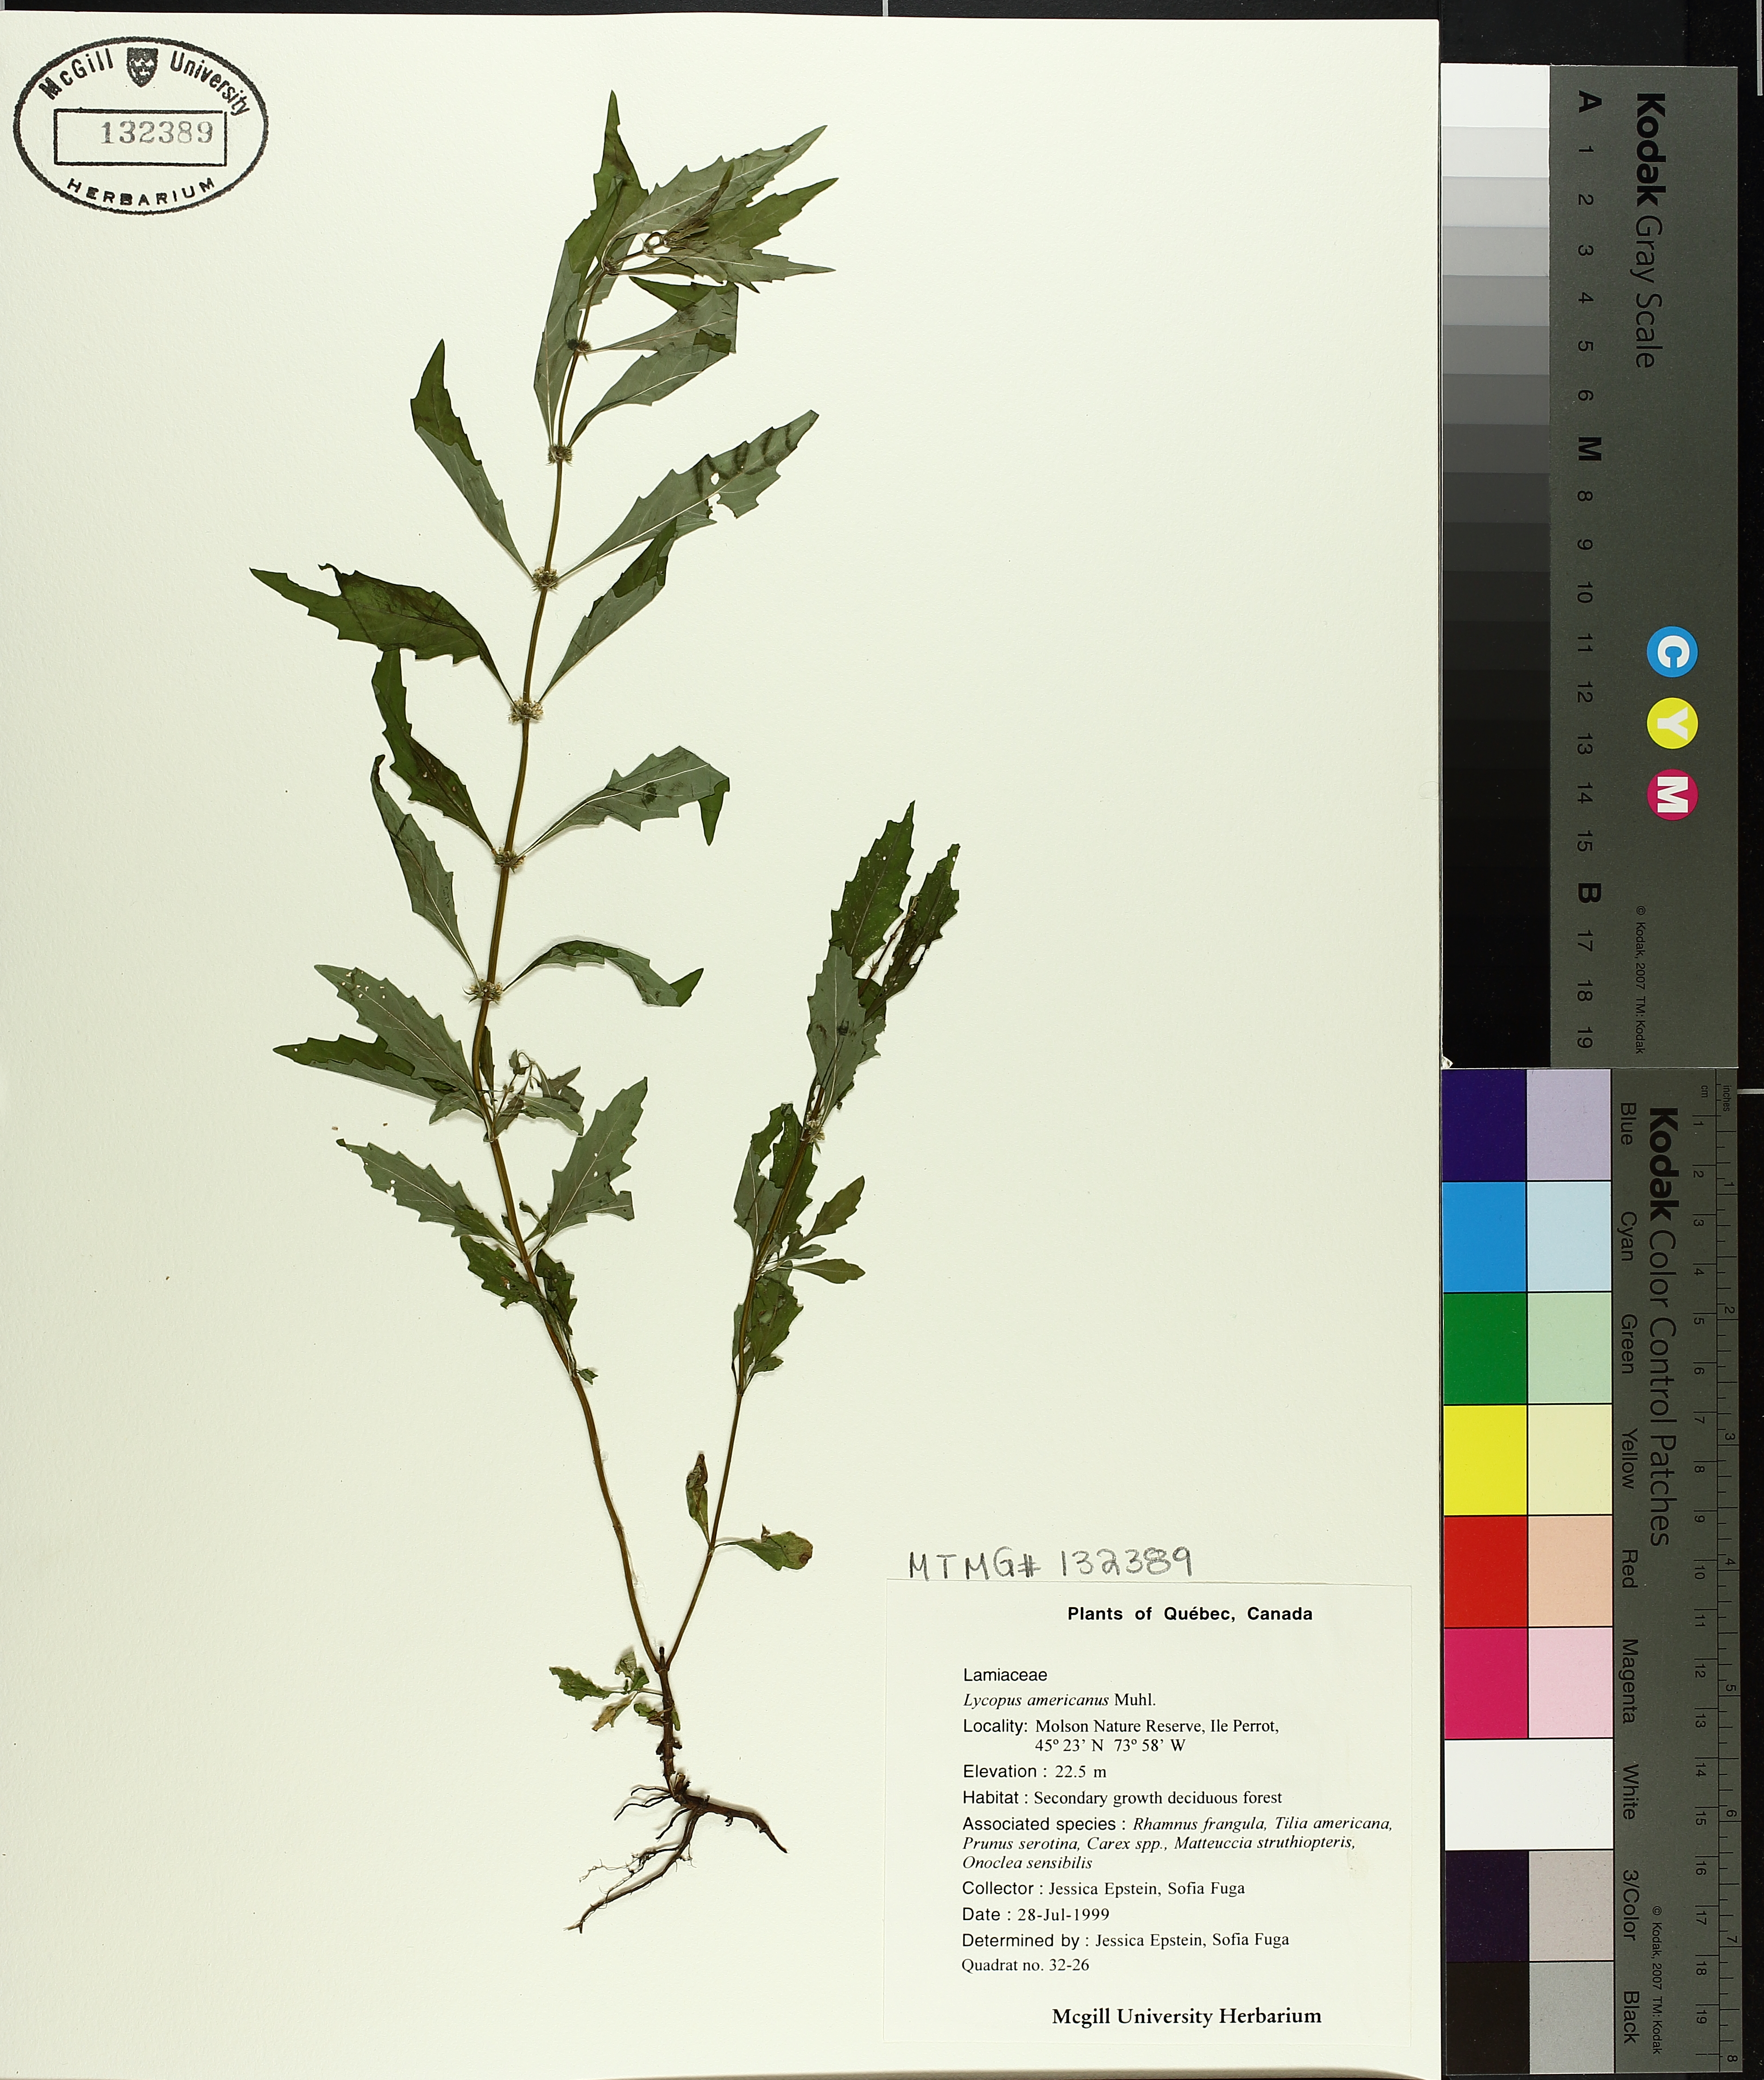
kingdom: Plantae
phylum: Tracheophyta
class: Magnoliopsida
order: Lamiales
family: Lamiaceae
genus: Lycopus
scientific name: Lycopus americanus
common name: American bugleweed
